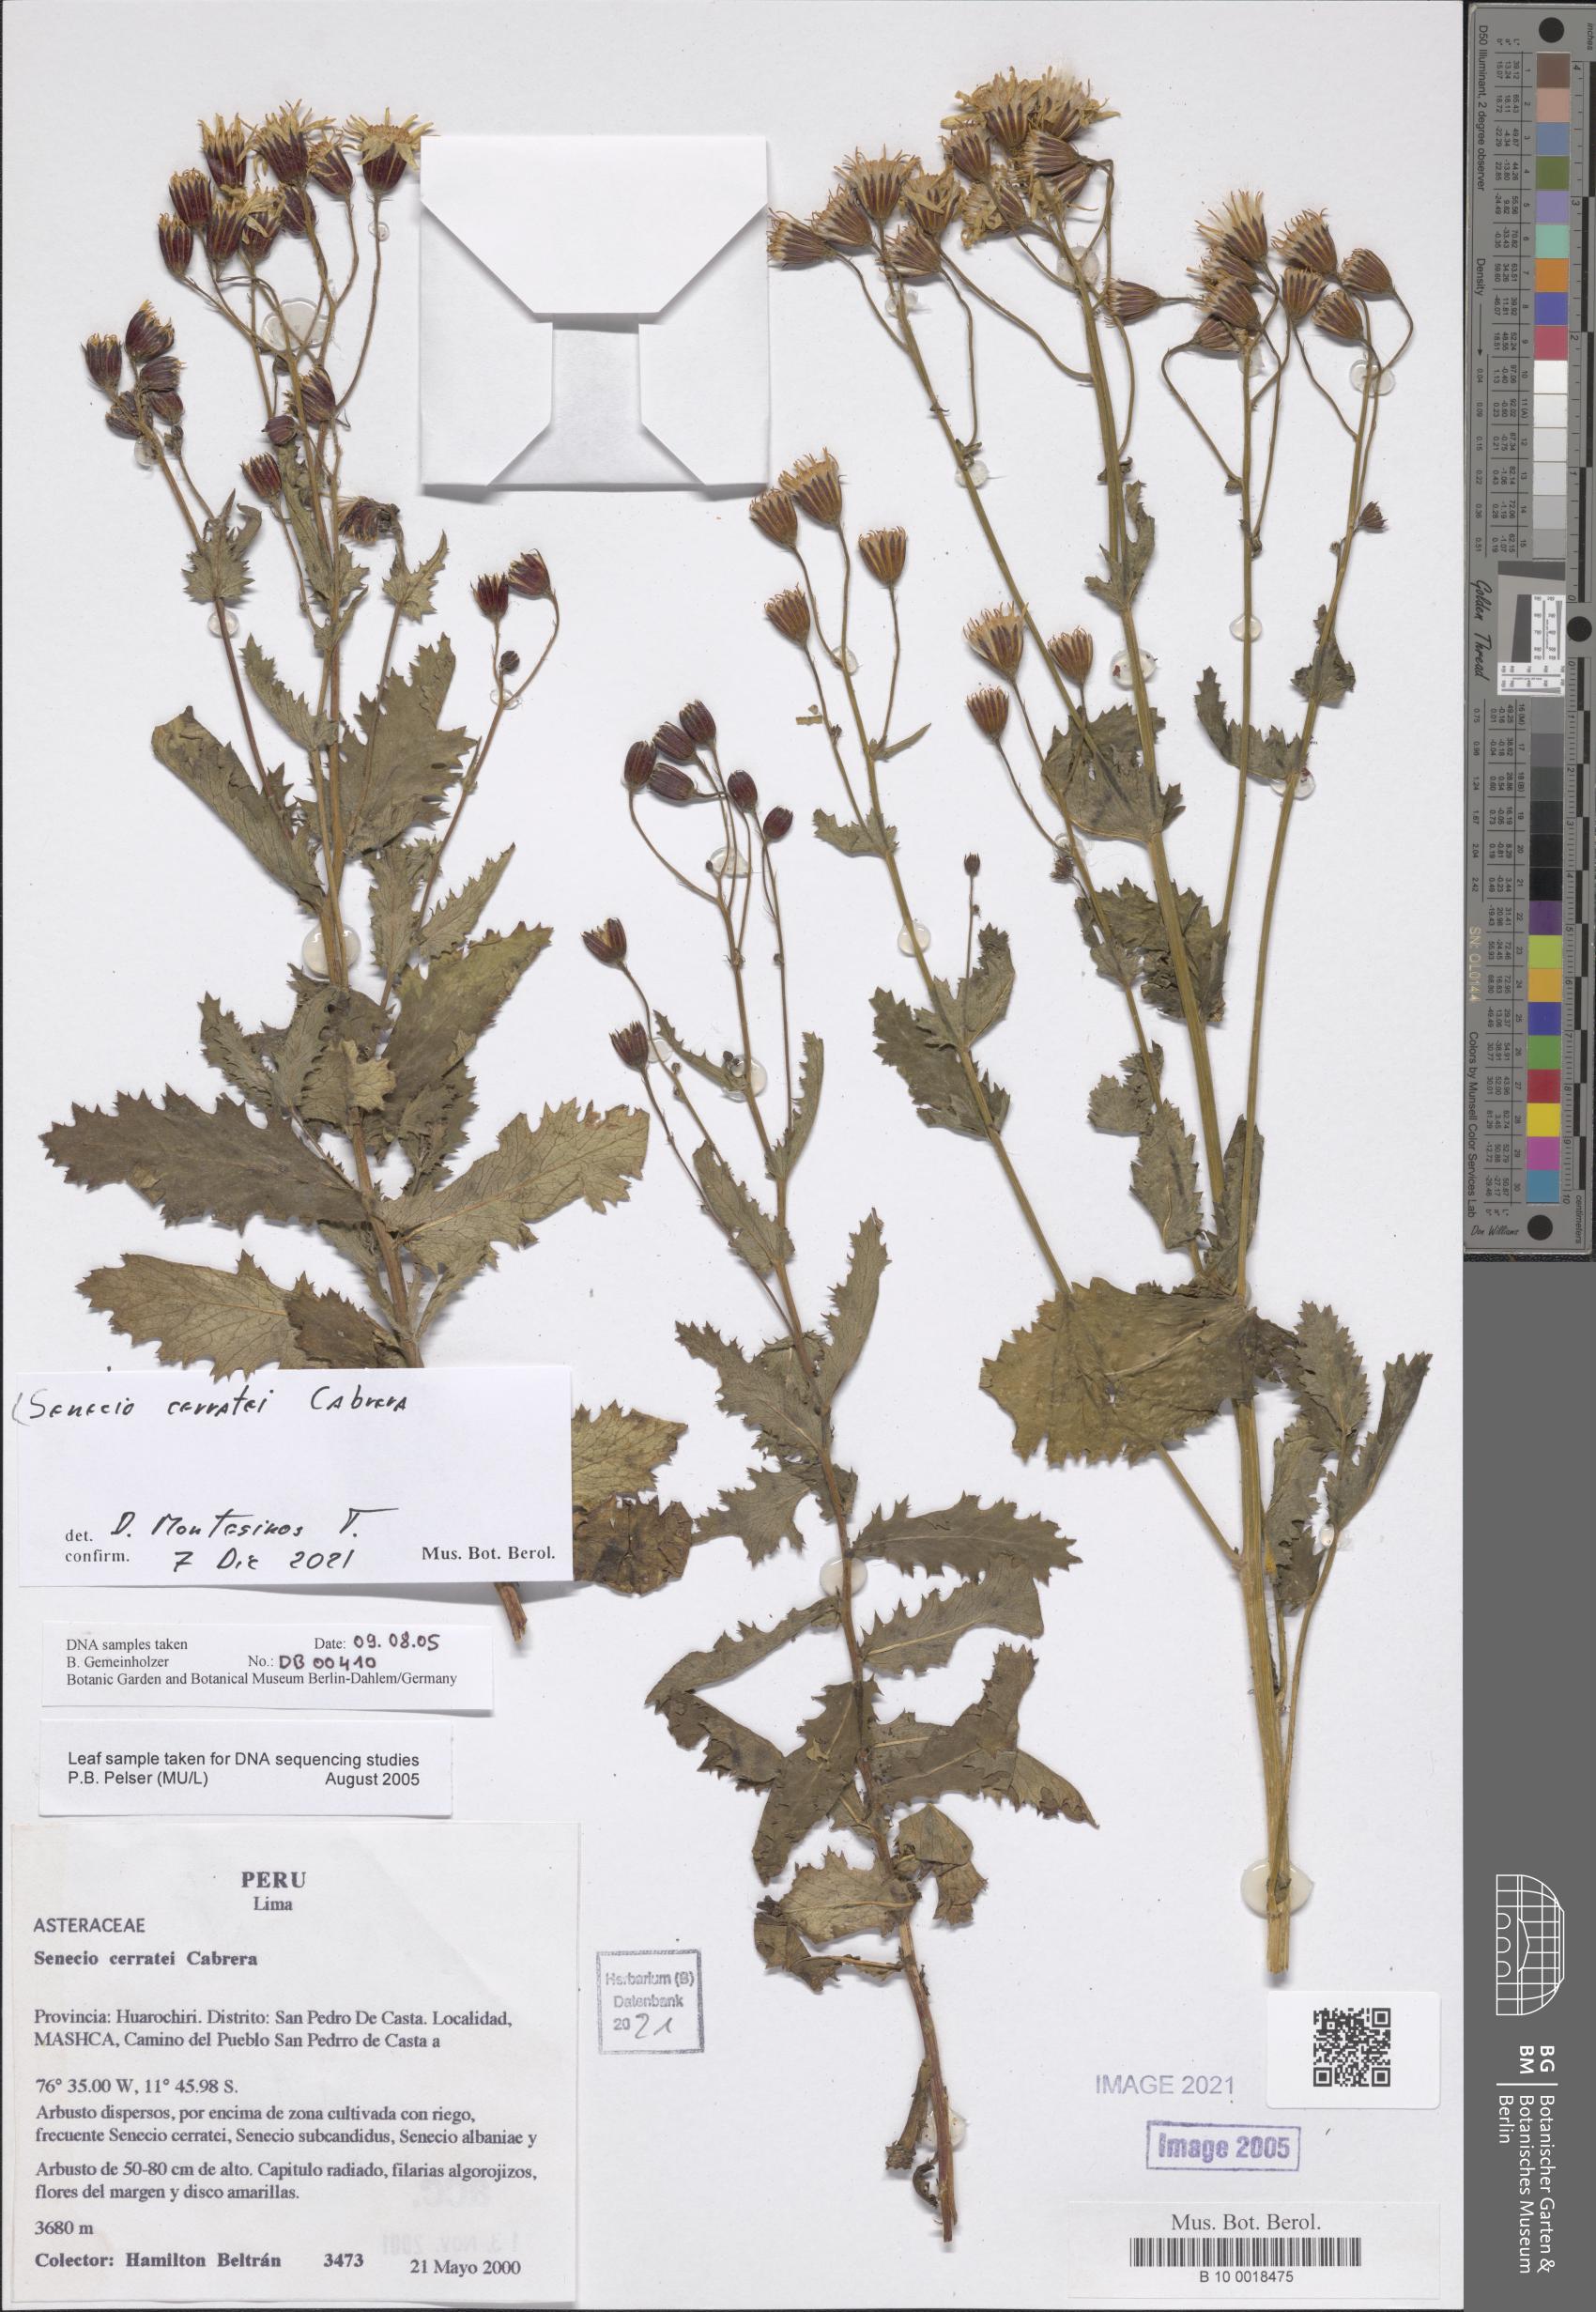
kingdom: Plantae
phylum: Tracheophyta
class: Magnoliopsida
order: Asterales
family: Asteraceae
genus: Senecio
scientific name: Senecio cerratei
